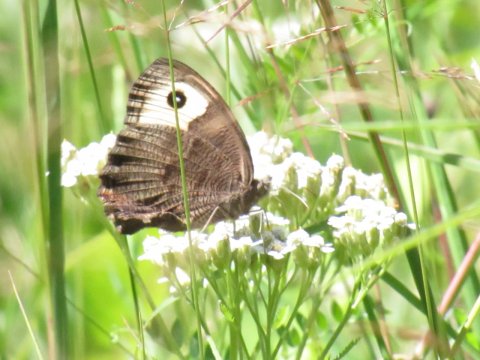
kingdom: Animalia
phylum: Arthropoda
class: Insecta
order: Lepidoptera
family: Nymphalidae
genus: Cercyonis
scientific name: Cercyonis pegala
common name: Common Wood-Nymph
